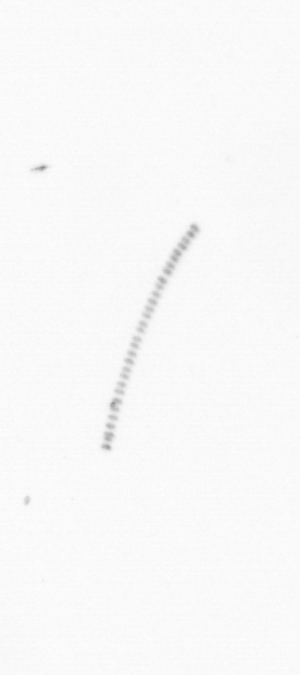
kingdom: Chromista
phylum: Ochrophyta
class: Bacillariophyceae
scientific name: Bacillariophyceae
